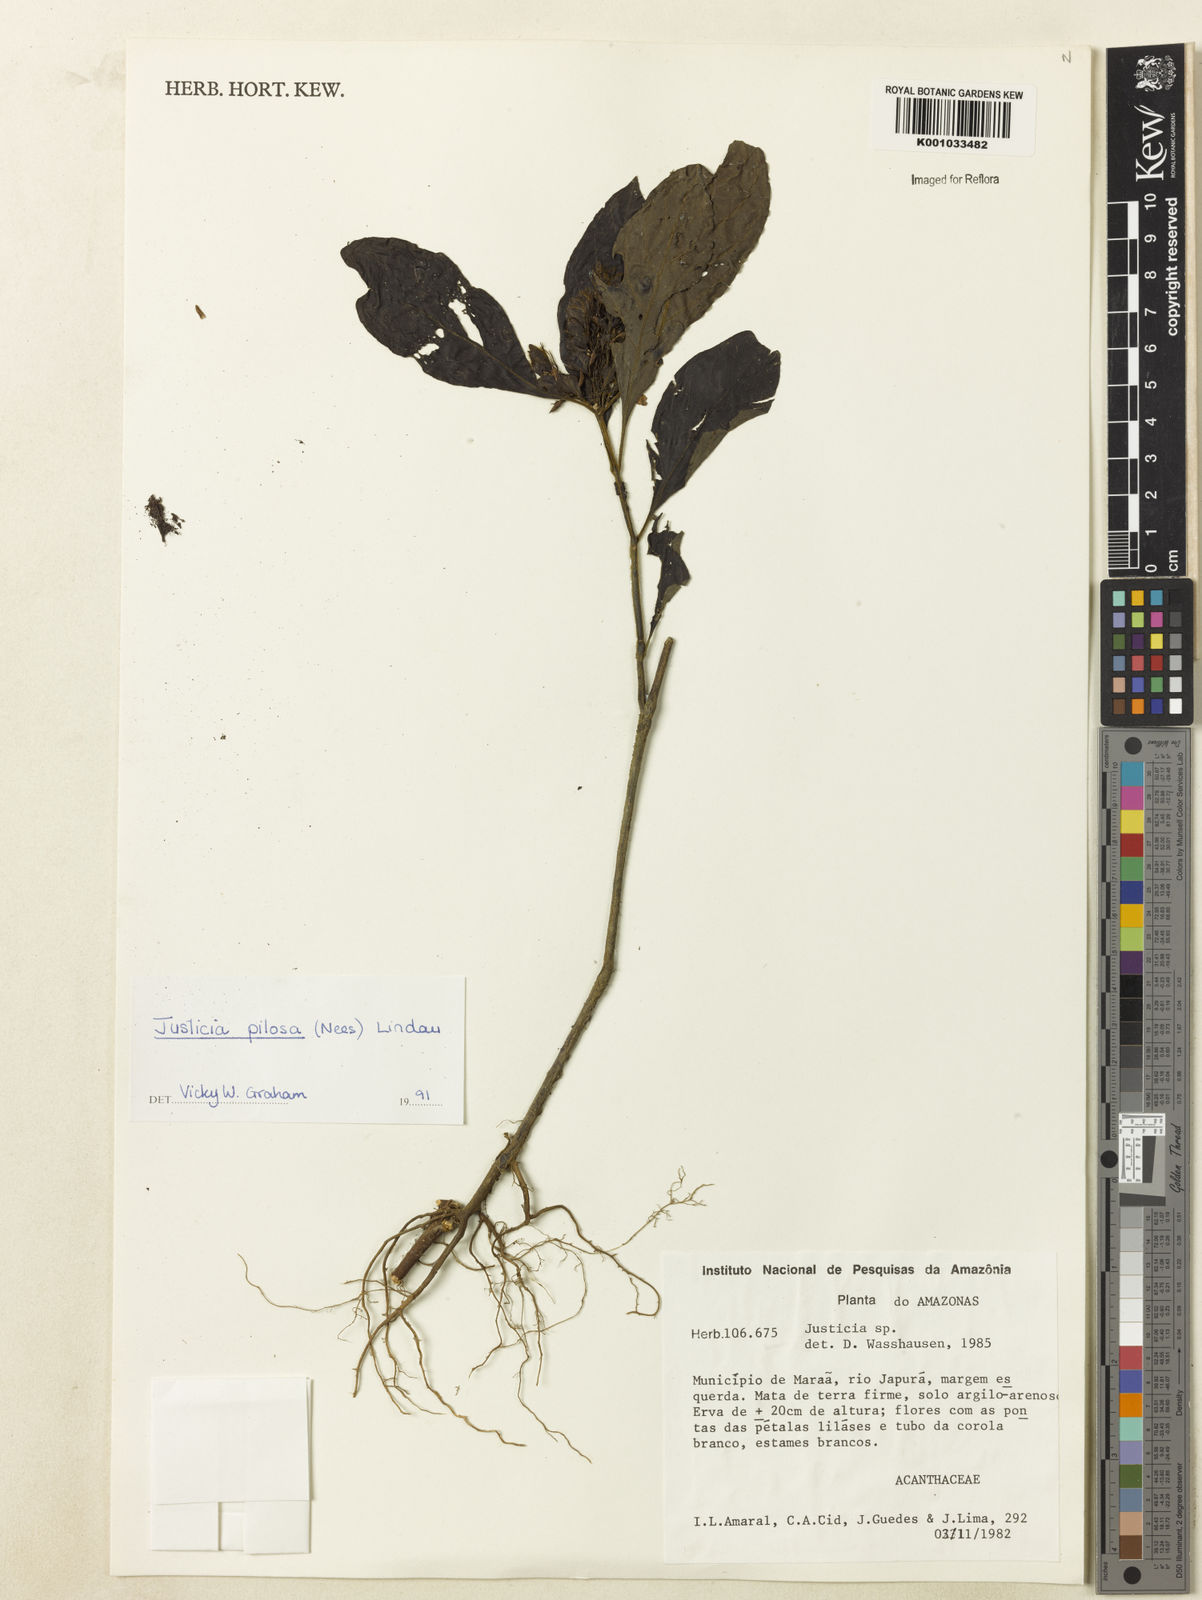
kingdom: Plantae
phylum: Tracheophyta
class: Magnoliopsida
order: Lamiales
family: Acanthaceae
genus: Justicia
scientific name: Justicia pilosa
